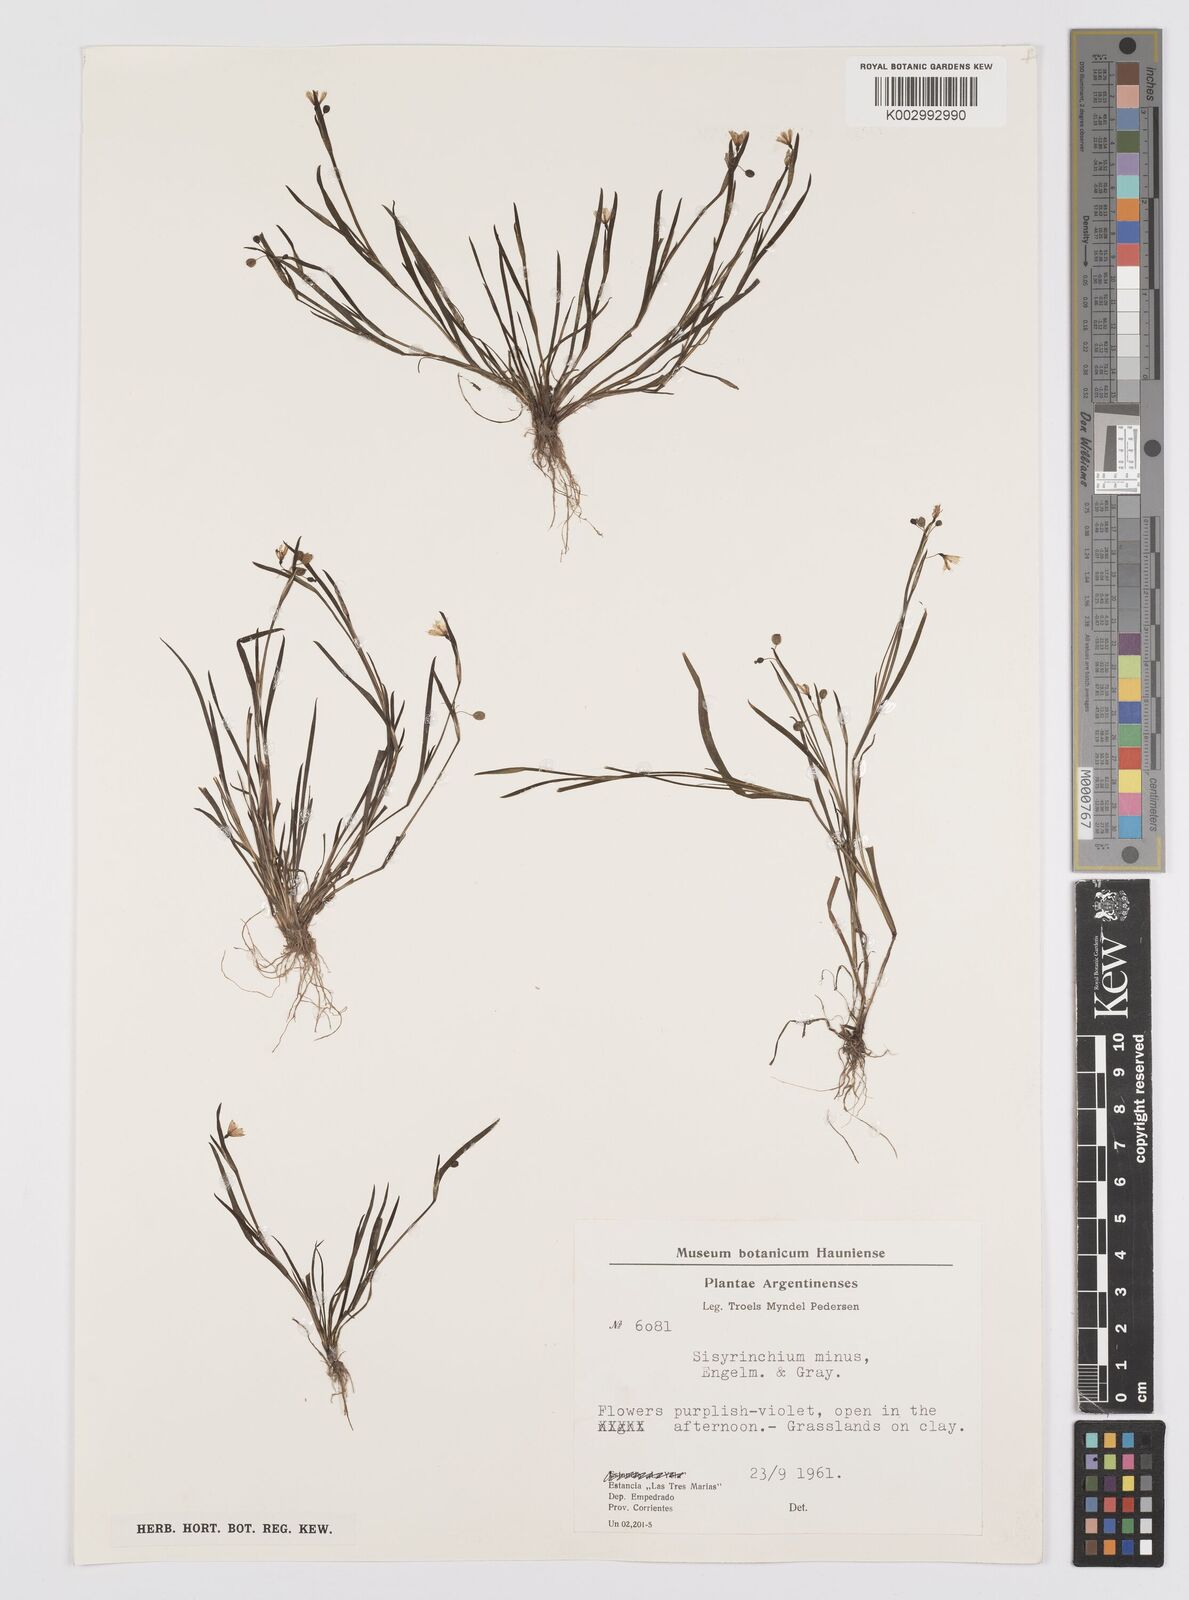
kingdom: Plantae
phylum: Tracheophyta
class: Liliopsida
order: Asparagales
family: Iridaceae
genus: Sisyrinchium
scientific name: Sisyrinchium minus
